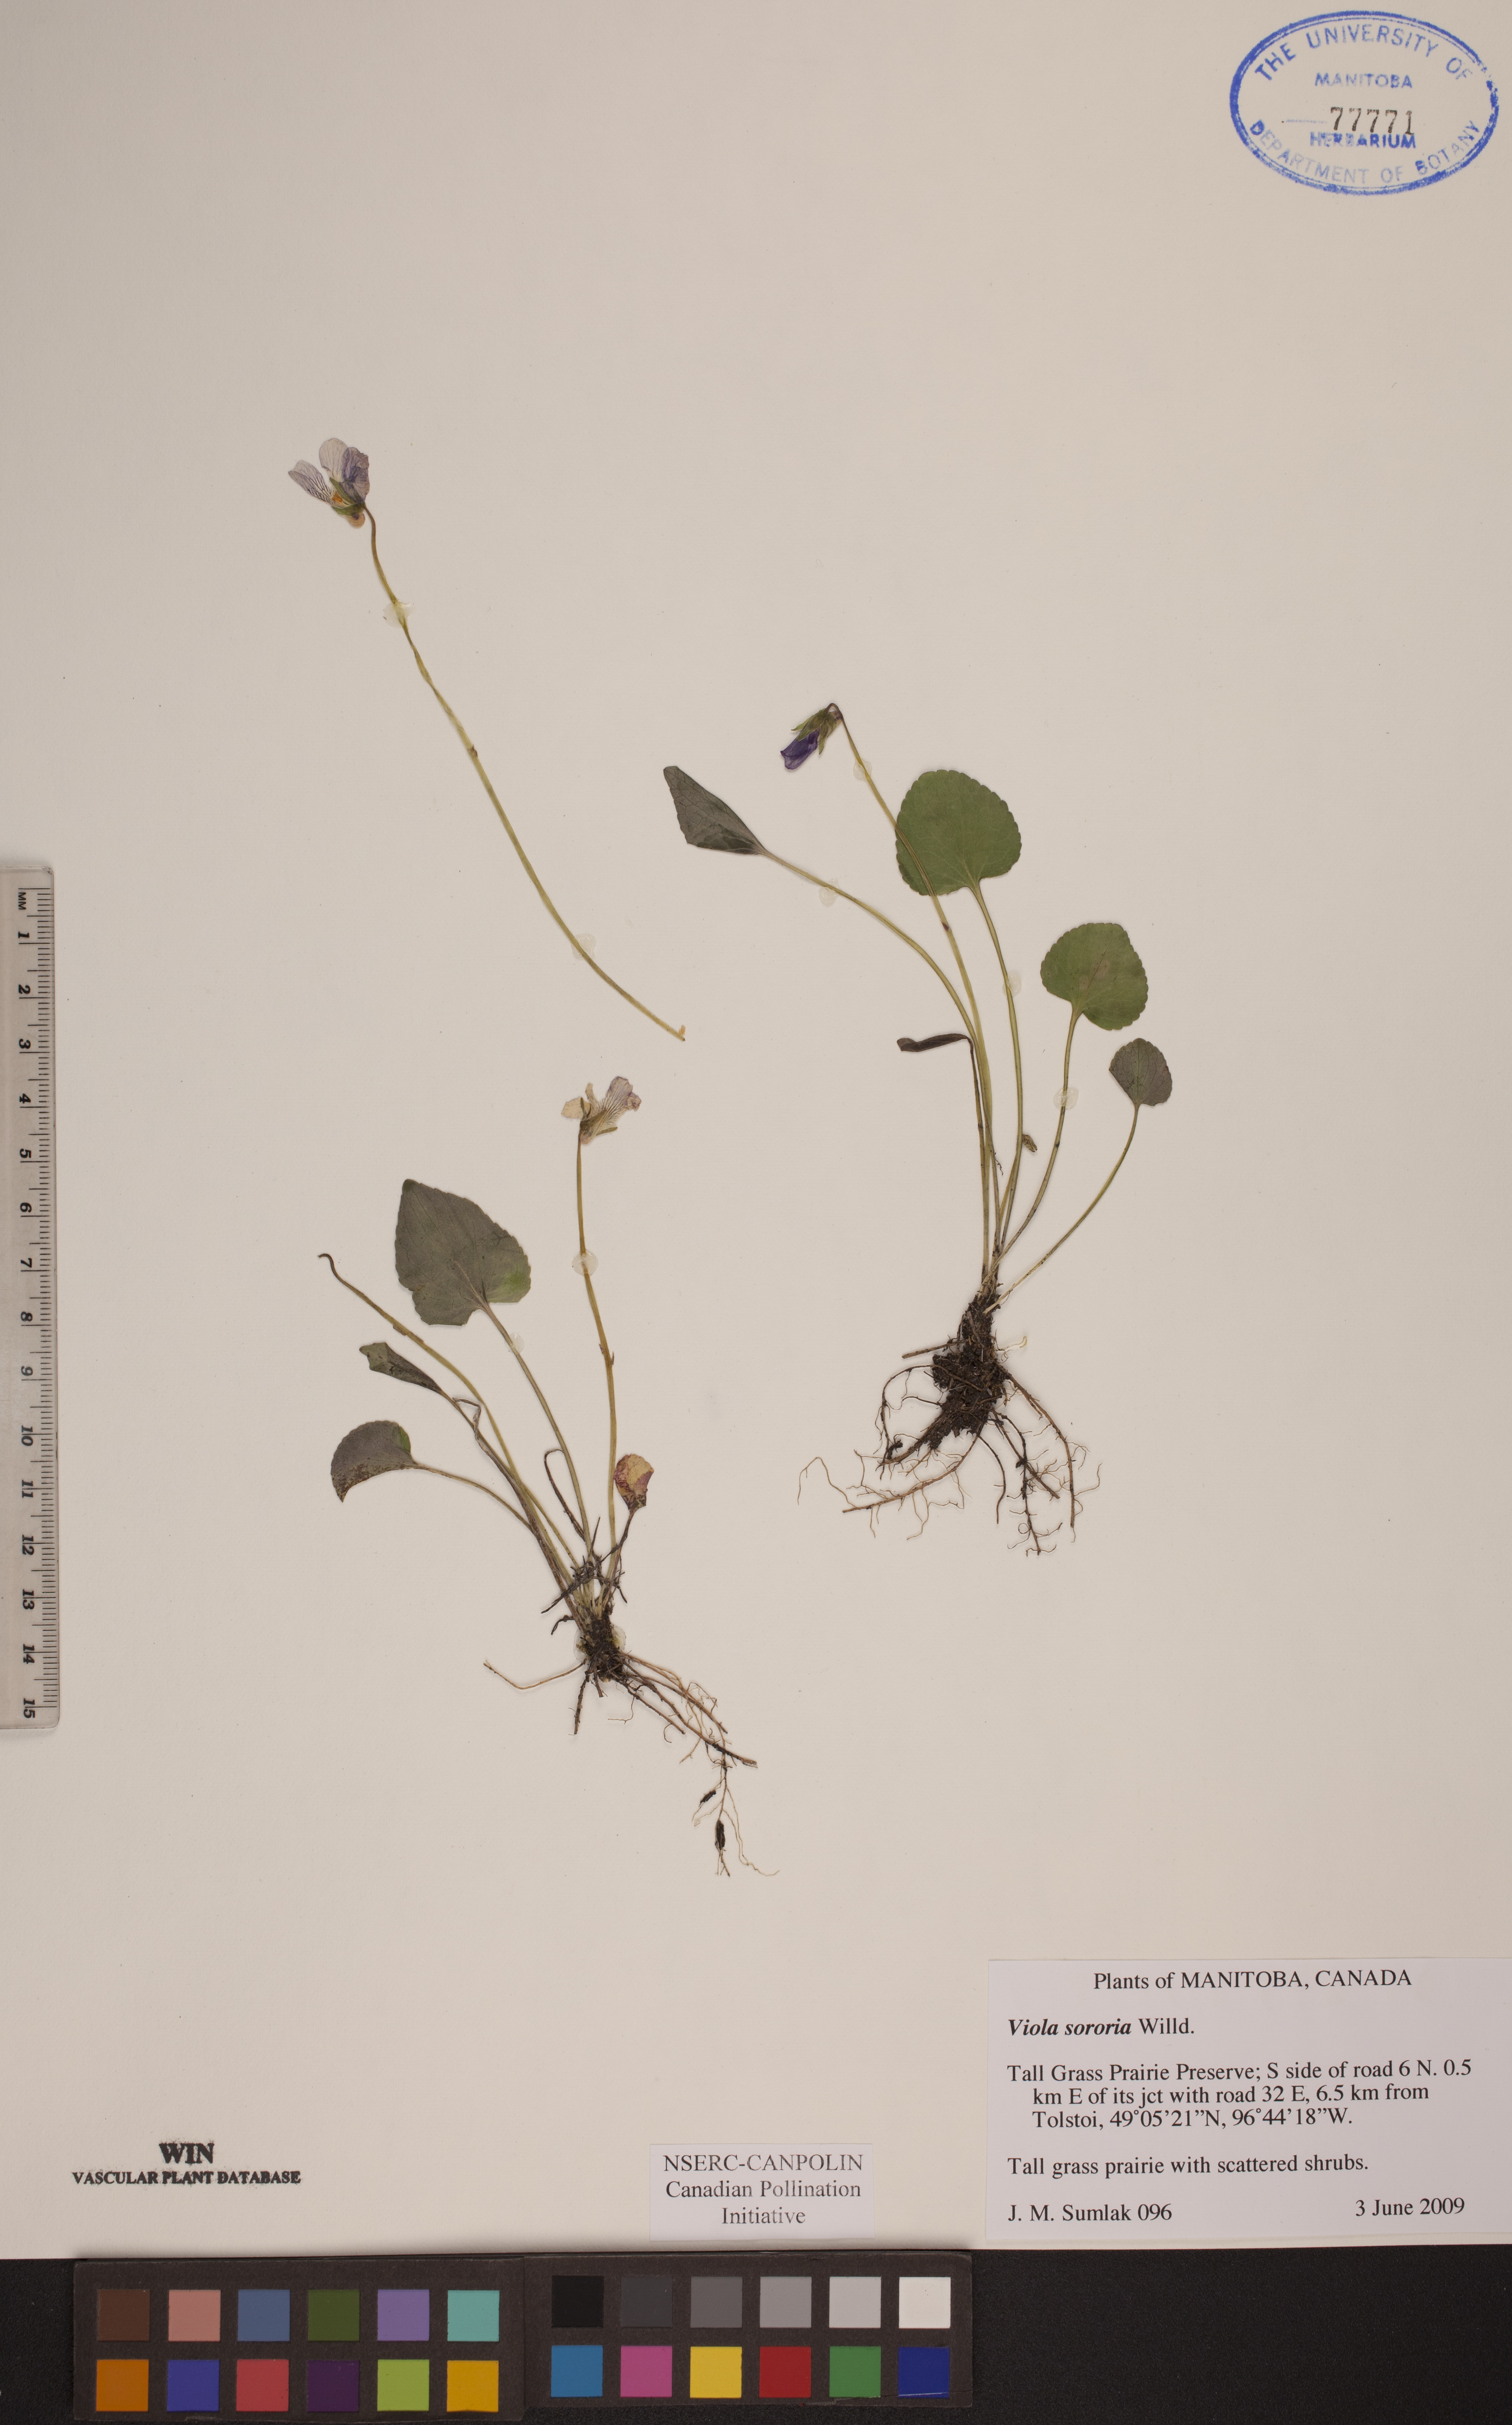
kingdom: Plantae
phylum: Tracheophyta
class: Magnoliopsida
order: Malpighiales
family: Violaceae
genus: Viola
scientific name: Viola sororia
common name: Dooryard violet
